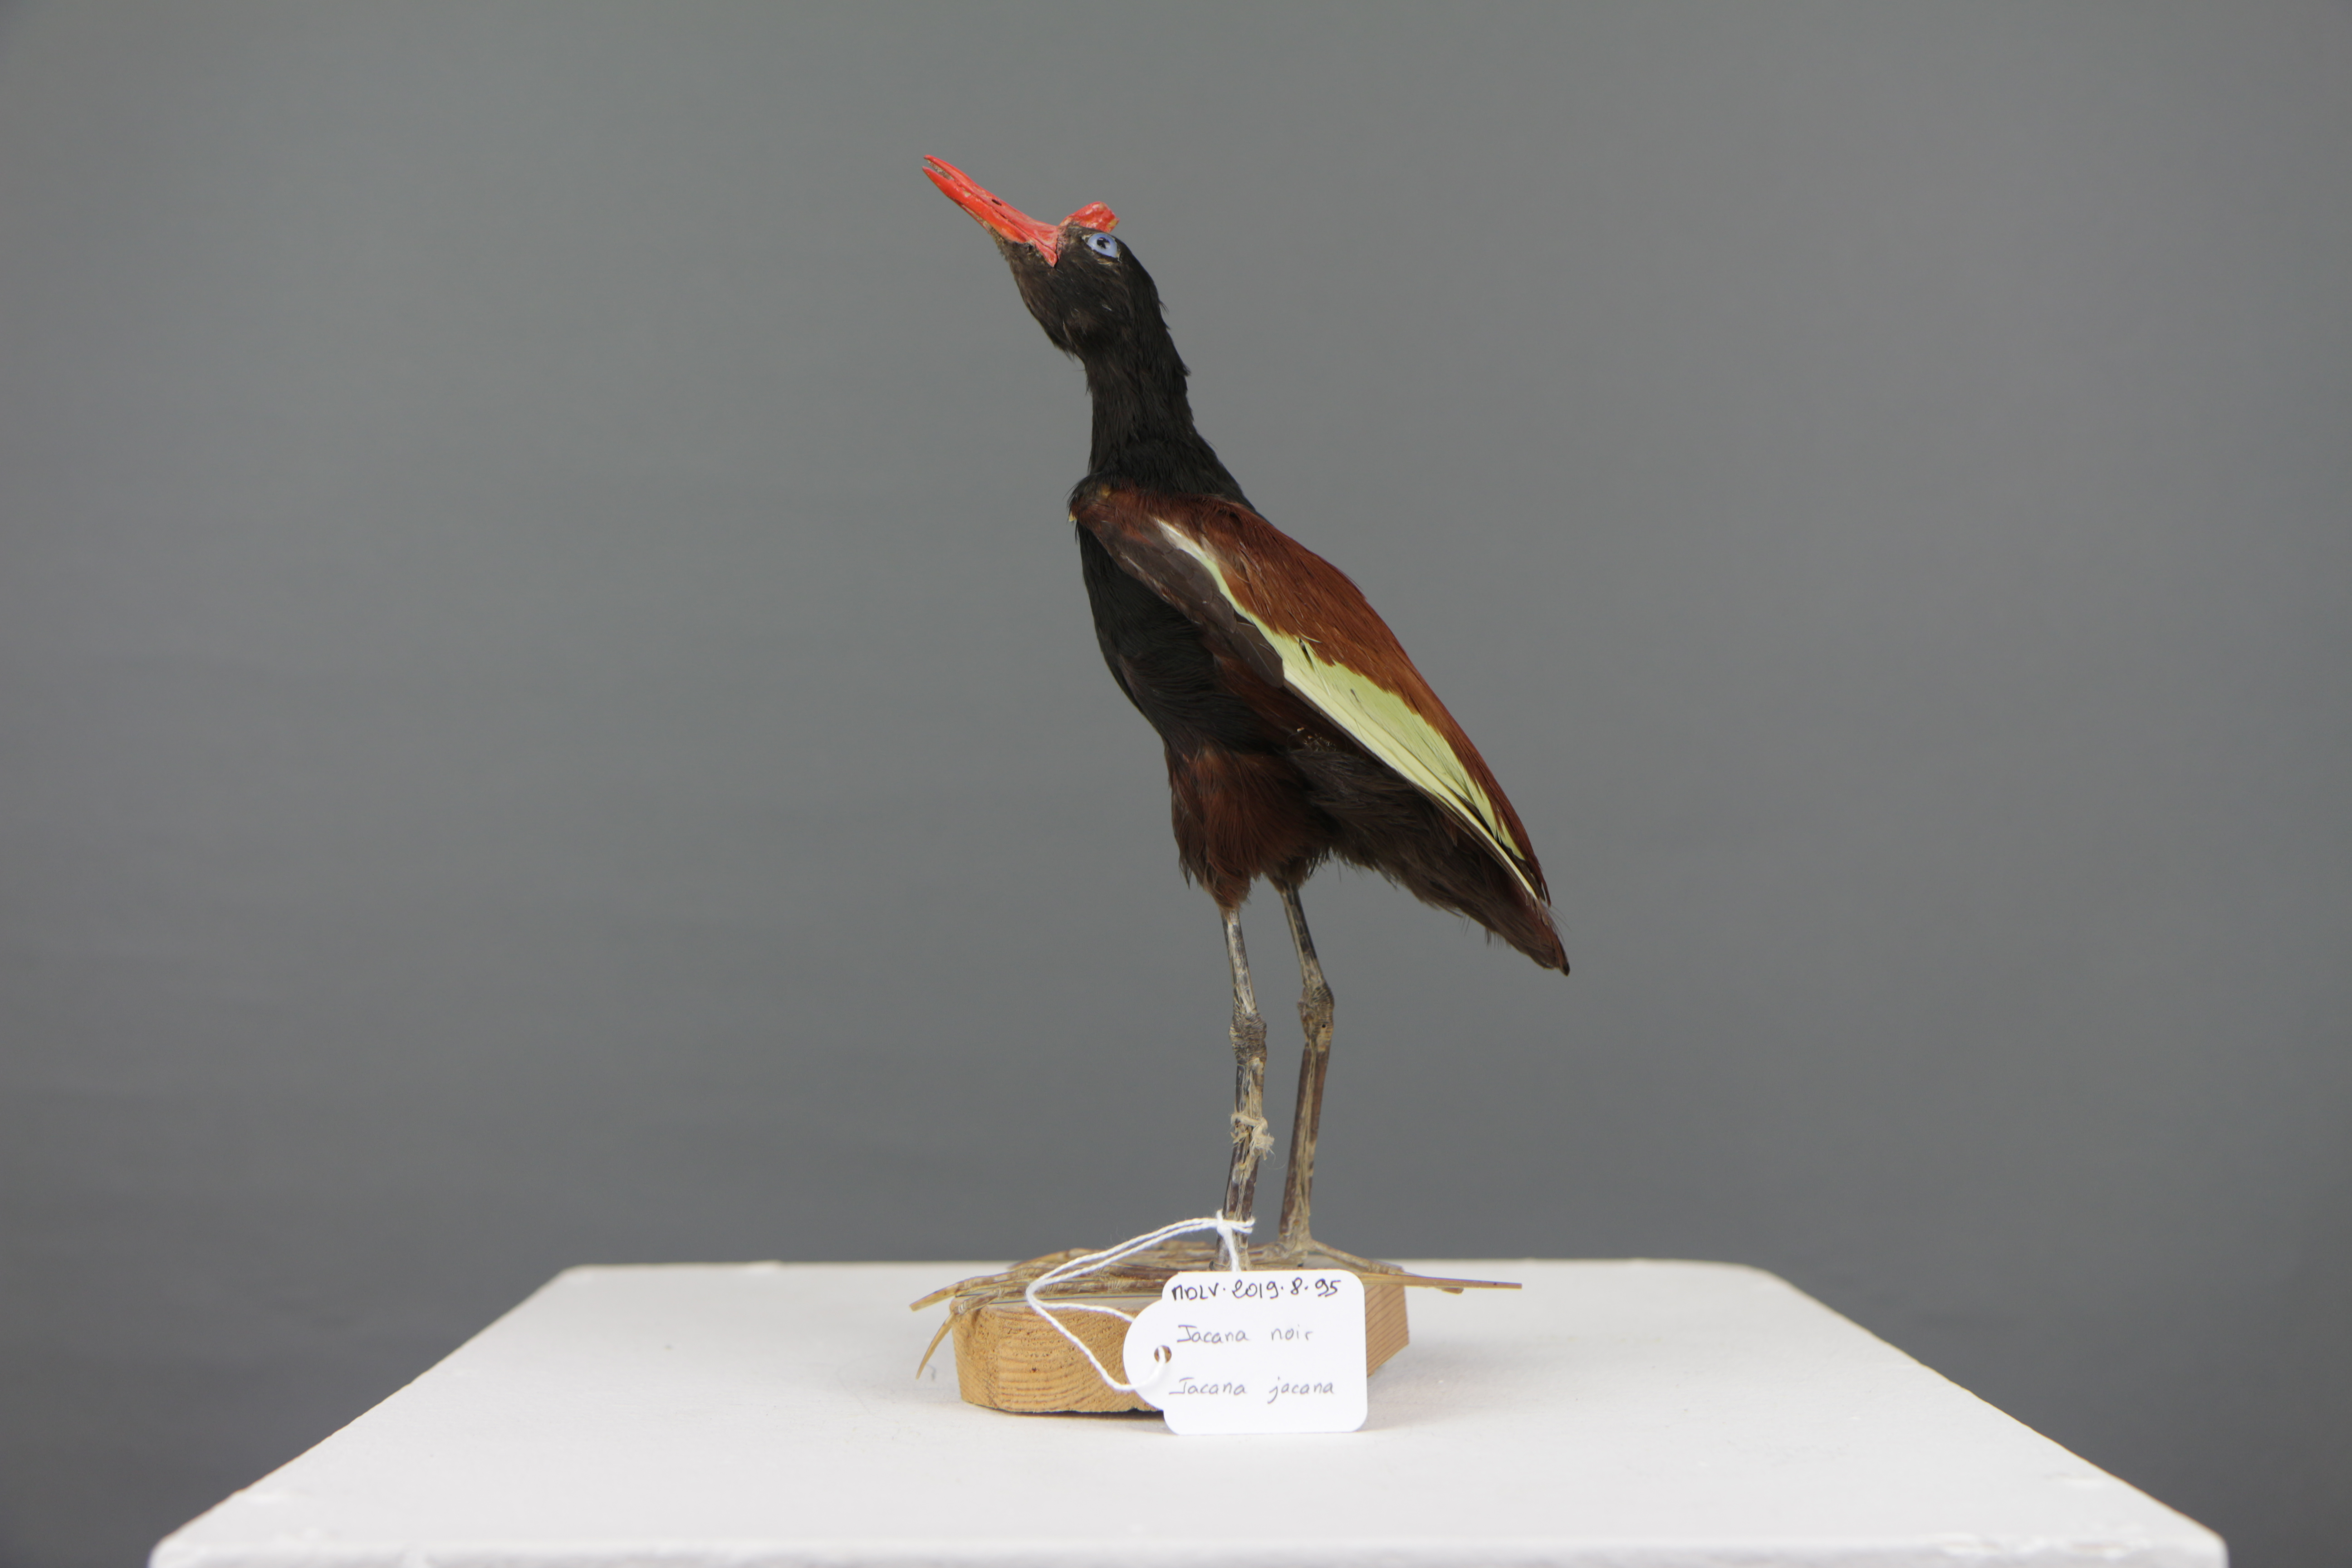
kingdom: Animalia
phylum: Chordata
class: Aves
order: Charadriiformes
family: Jacanidae
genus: Jacana
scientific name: Jacana jacana
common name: Wattled jacana
